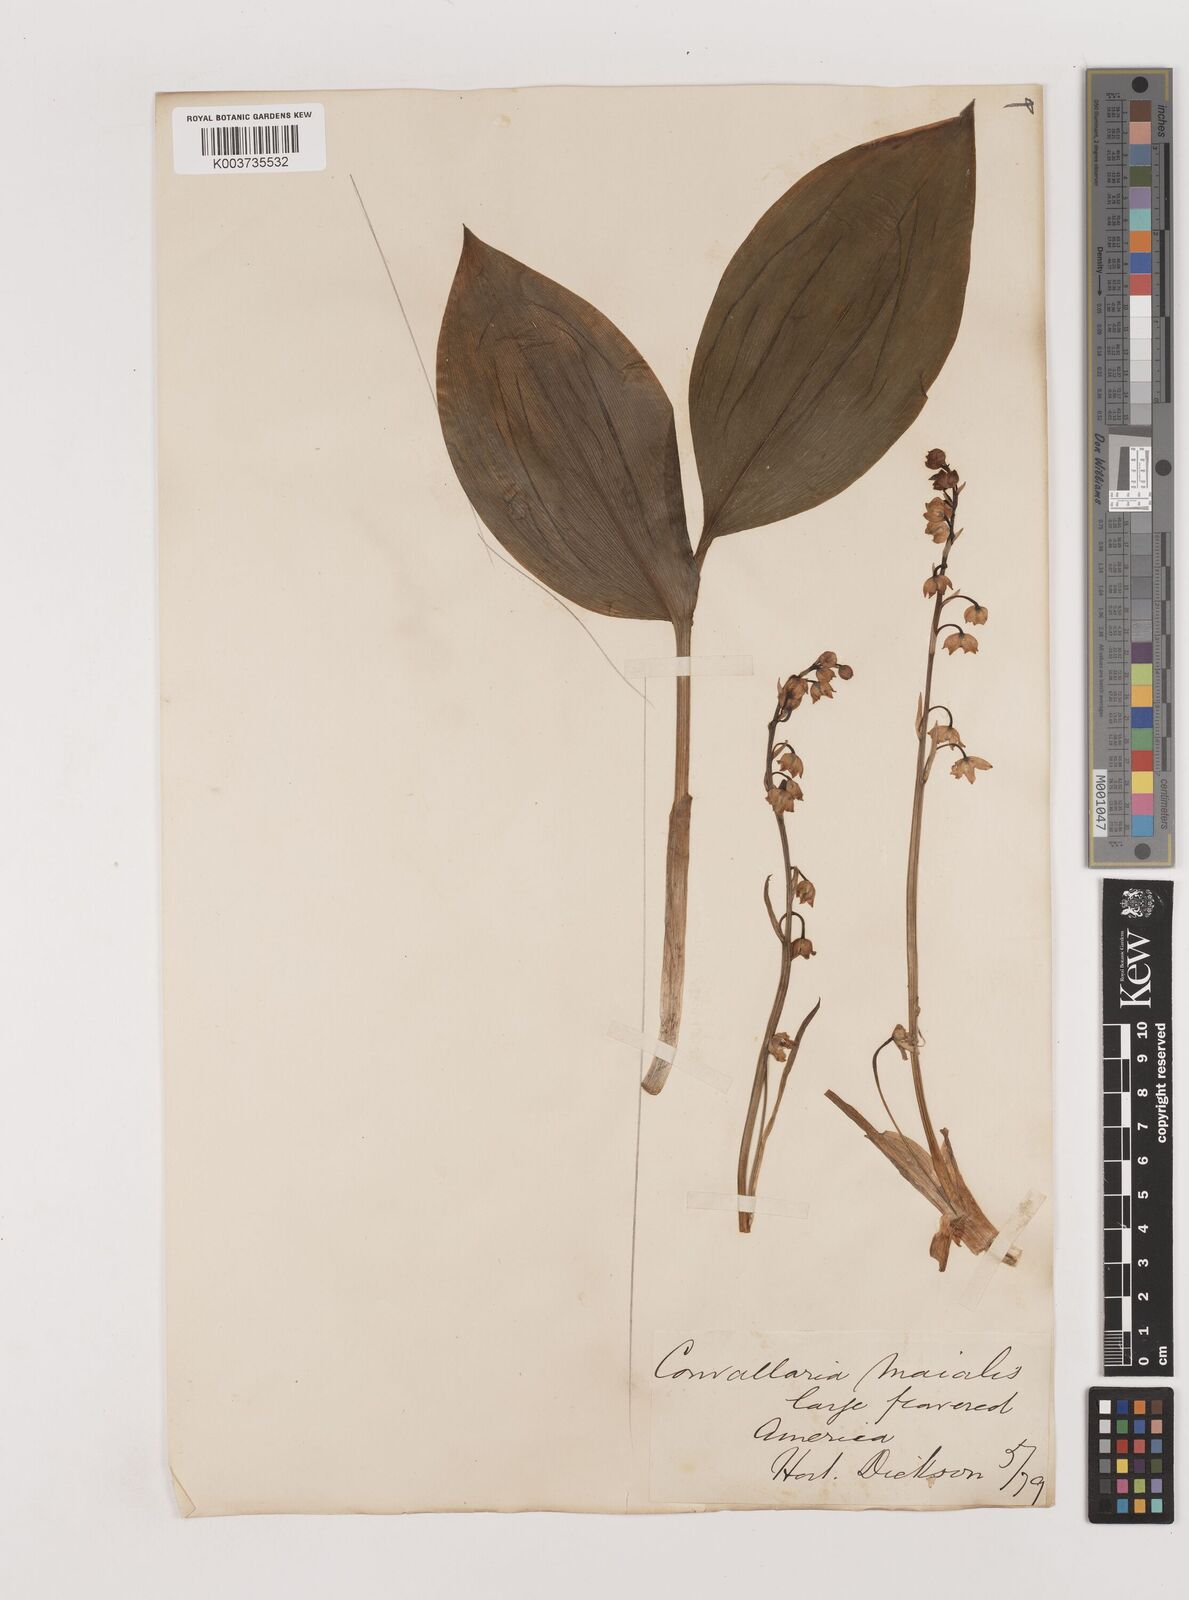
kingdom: Plantae
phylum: Tracheophyta
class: Liliopsida
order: Asparagales
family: Asparagaceae
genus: Convallaria
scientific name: Convallaria pseudomajalis
